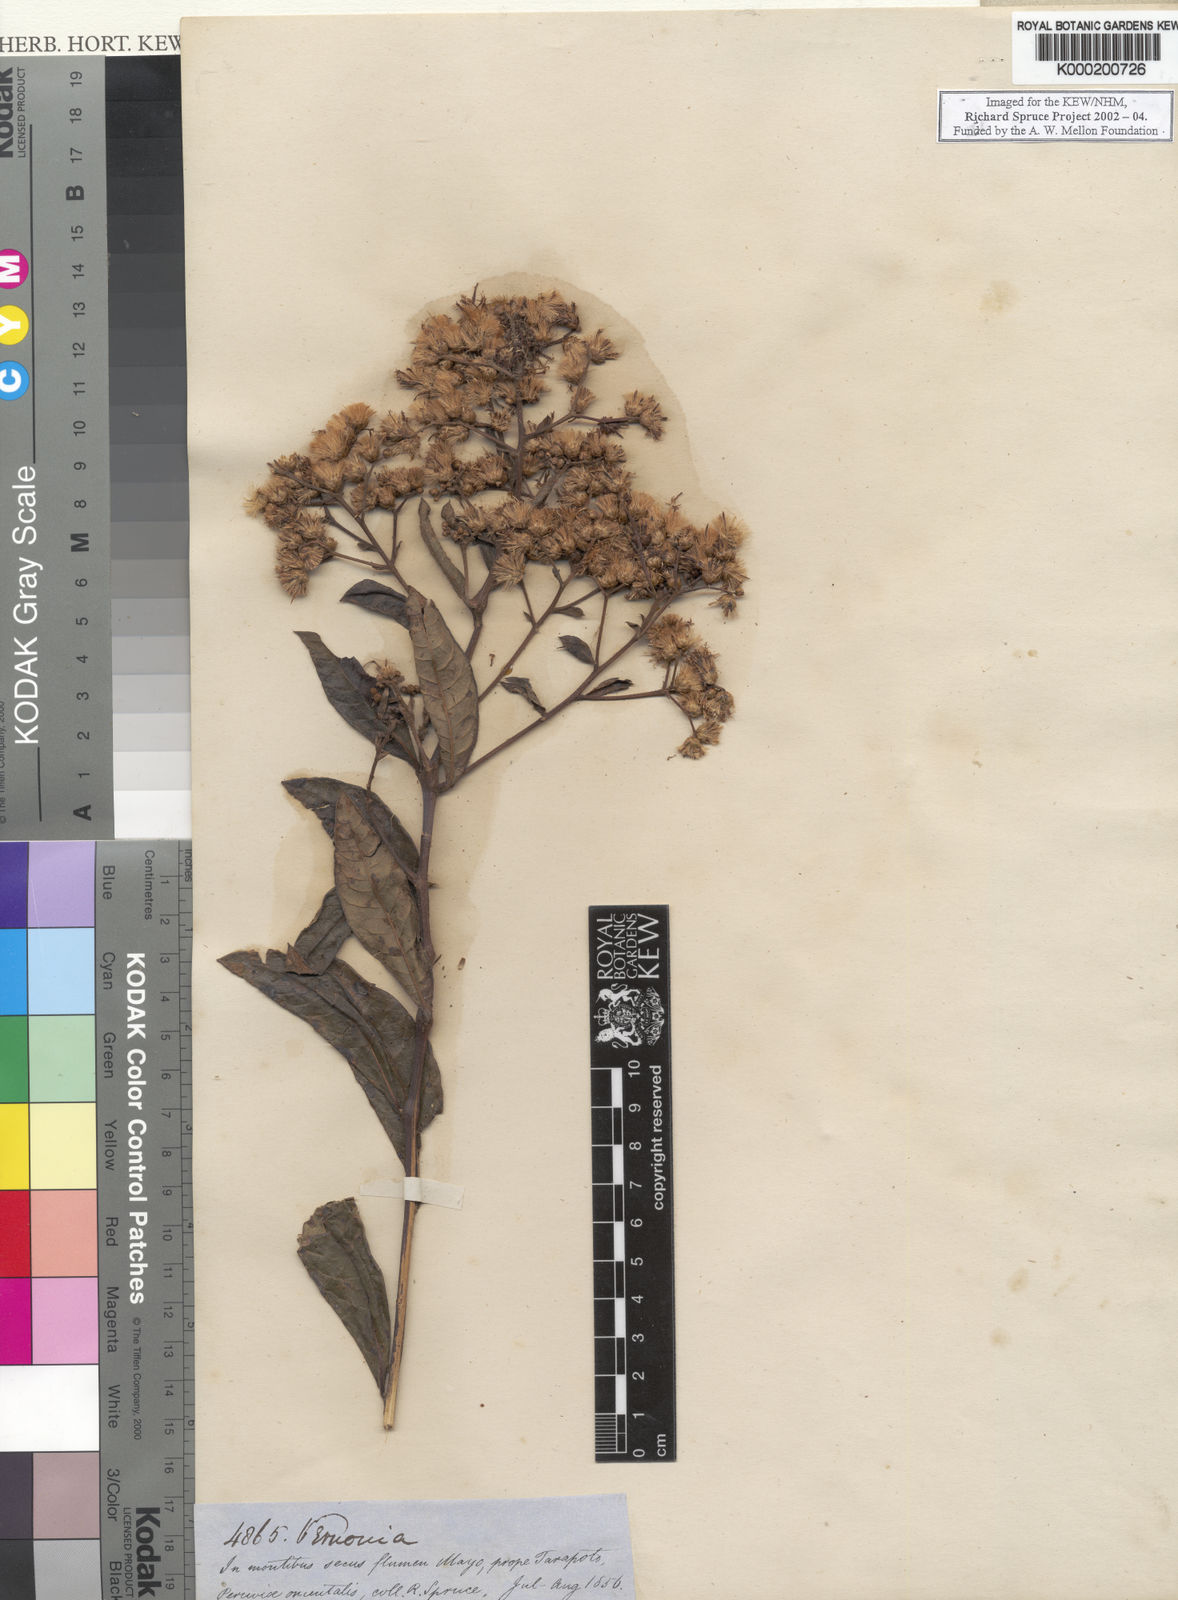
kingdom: Plantae
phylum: Tracheophyta
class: Magnoliopsida
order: Asterales
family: Asteraceae
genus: Vernonia
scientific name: Vernonia
